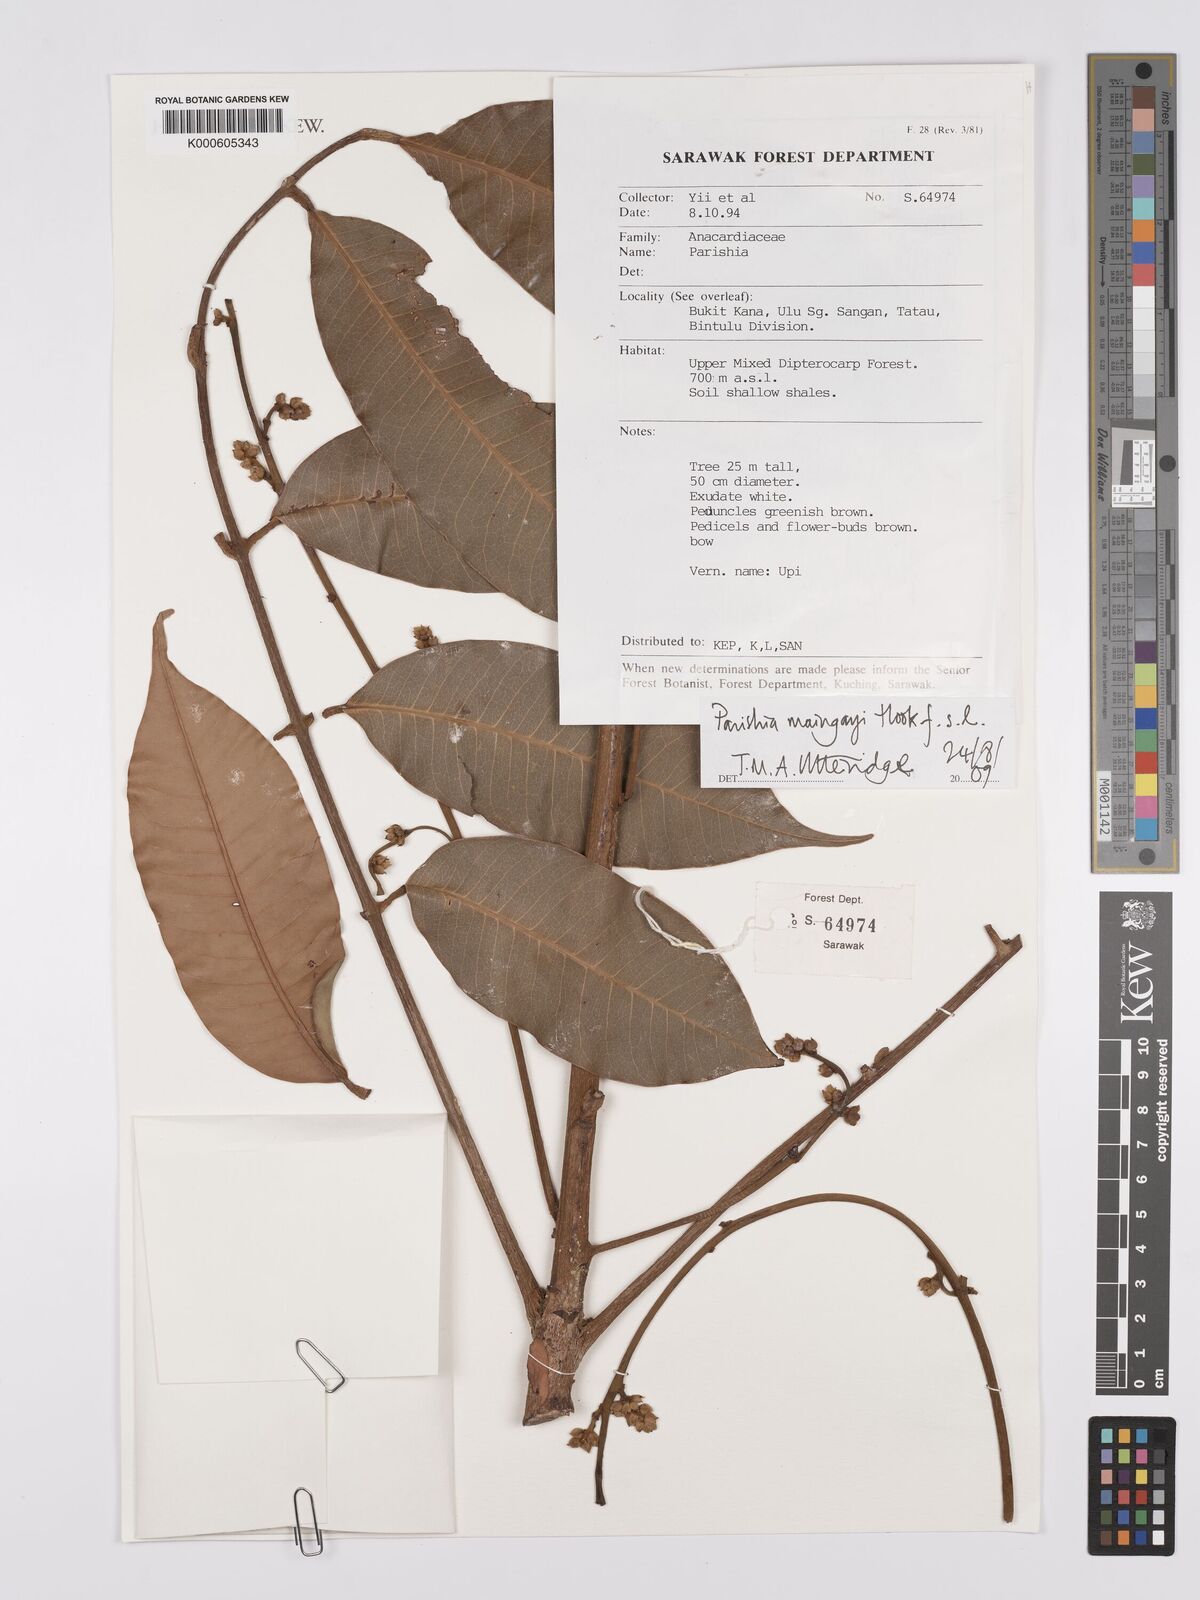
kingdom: Plantae
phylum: Tracheophyta
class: Magnoliopsida
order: Sapindales
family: Anacardiaceae
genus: Parishia
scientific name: Parishia
